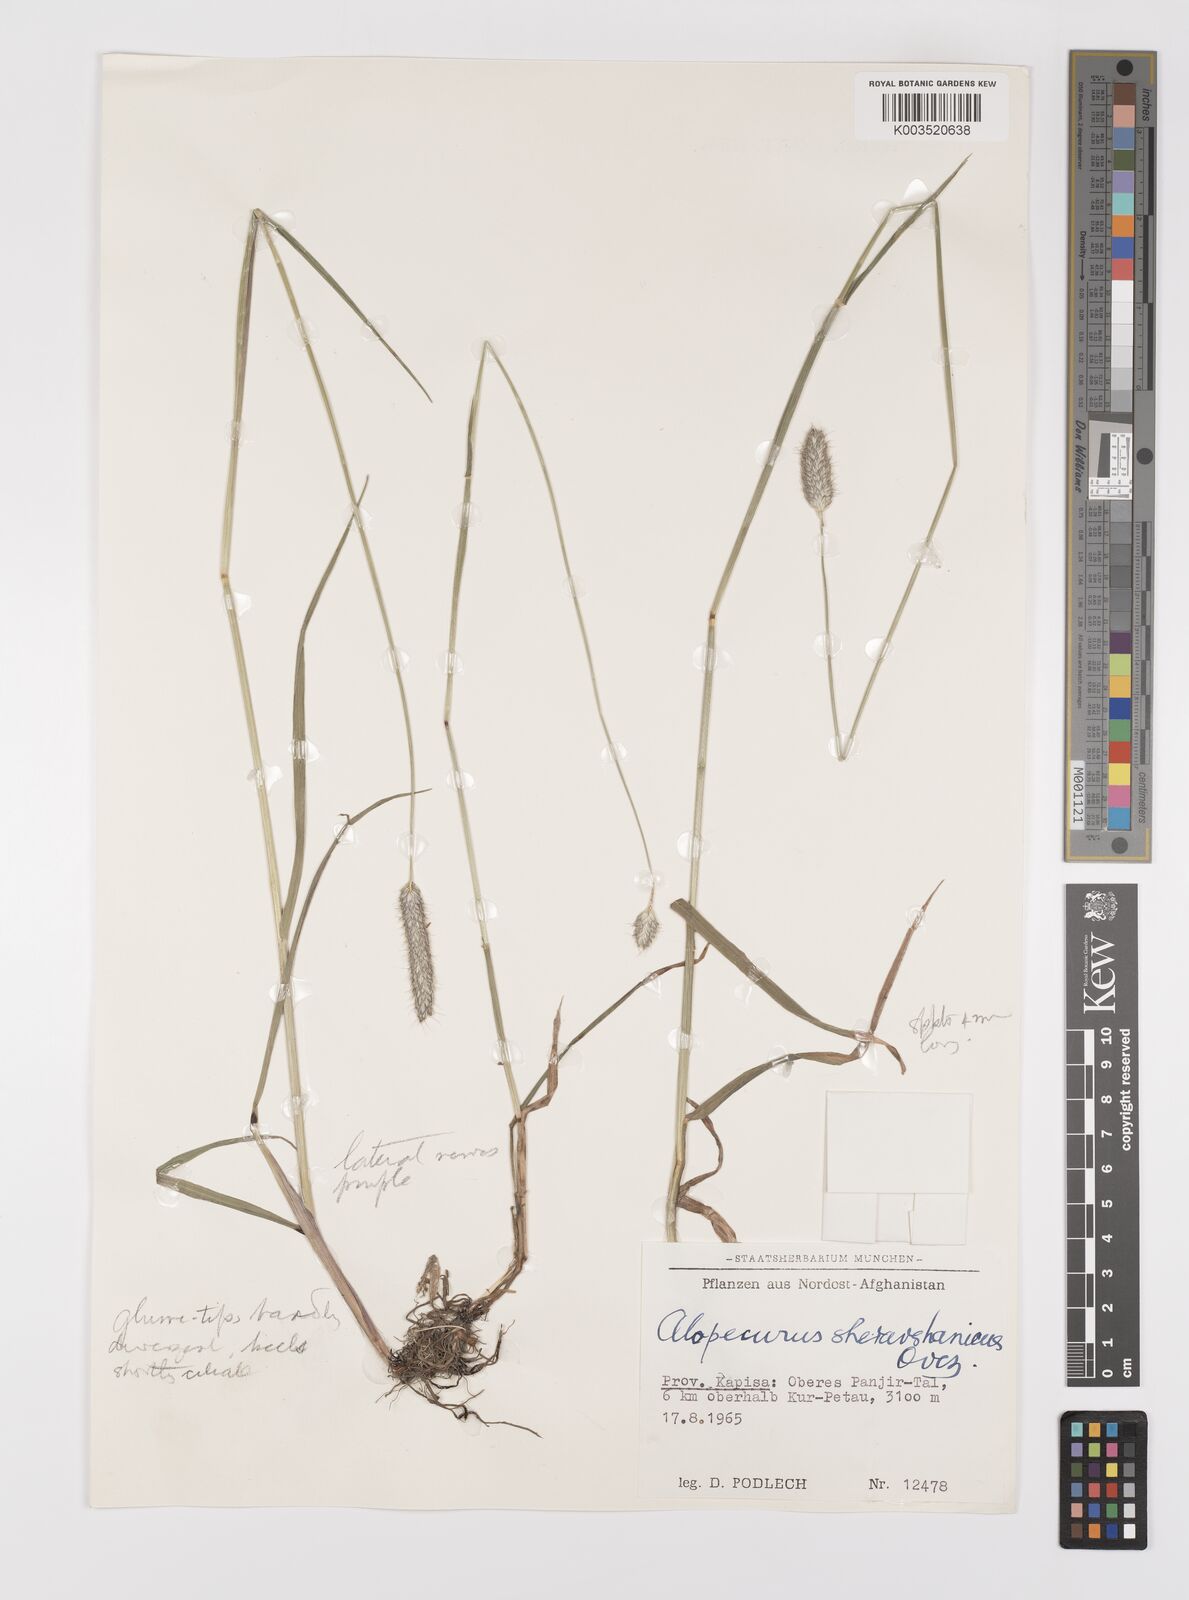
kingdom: Plantae
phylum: Tracheophyta
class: Liliopsida
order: Poales
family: Poaceae
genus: Alopecurus
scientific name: Alopecurus pratensis
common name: Meadow foxtail
